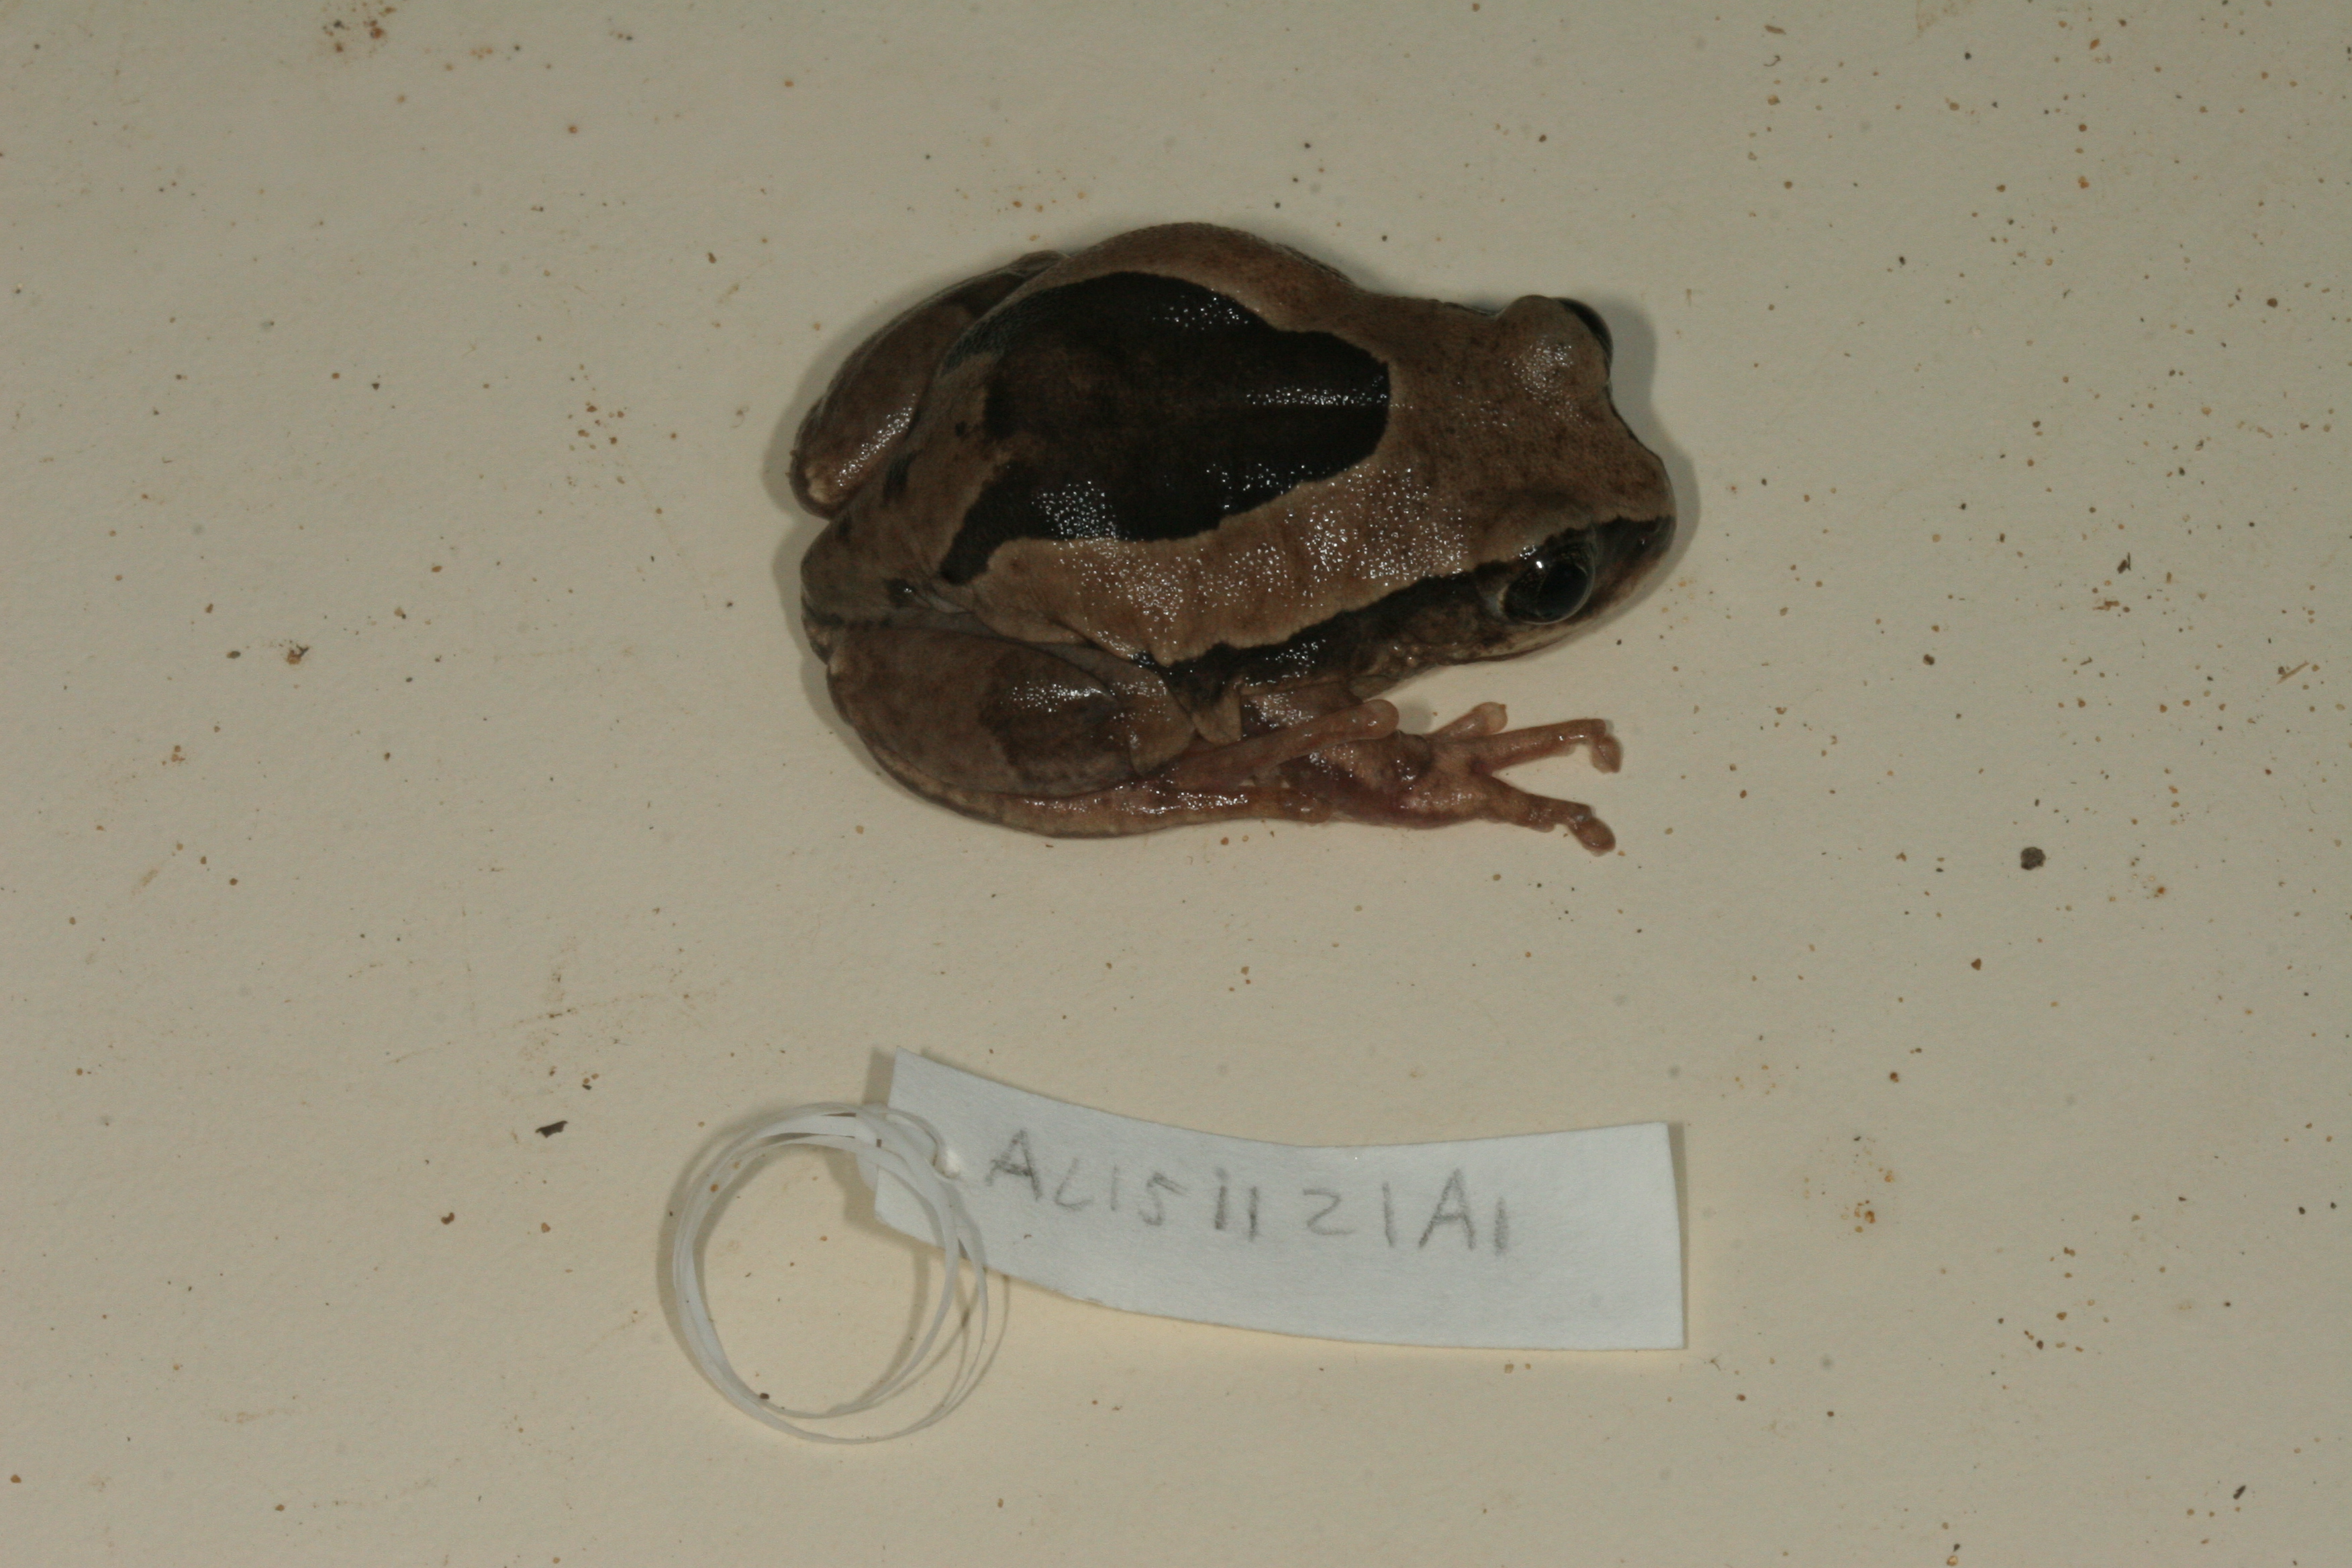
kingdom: Animalia
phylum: Chordata
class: Amphibia
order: Anura
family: Arthroleptidae
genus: Leptopelis
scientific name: Leptopelis mossambicus
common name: Mozambique tree frog
